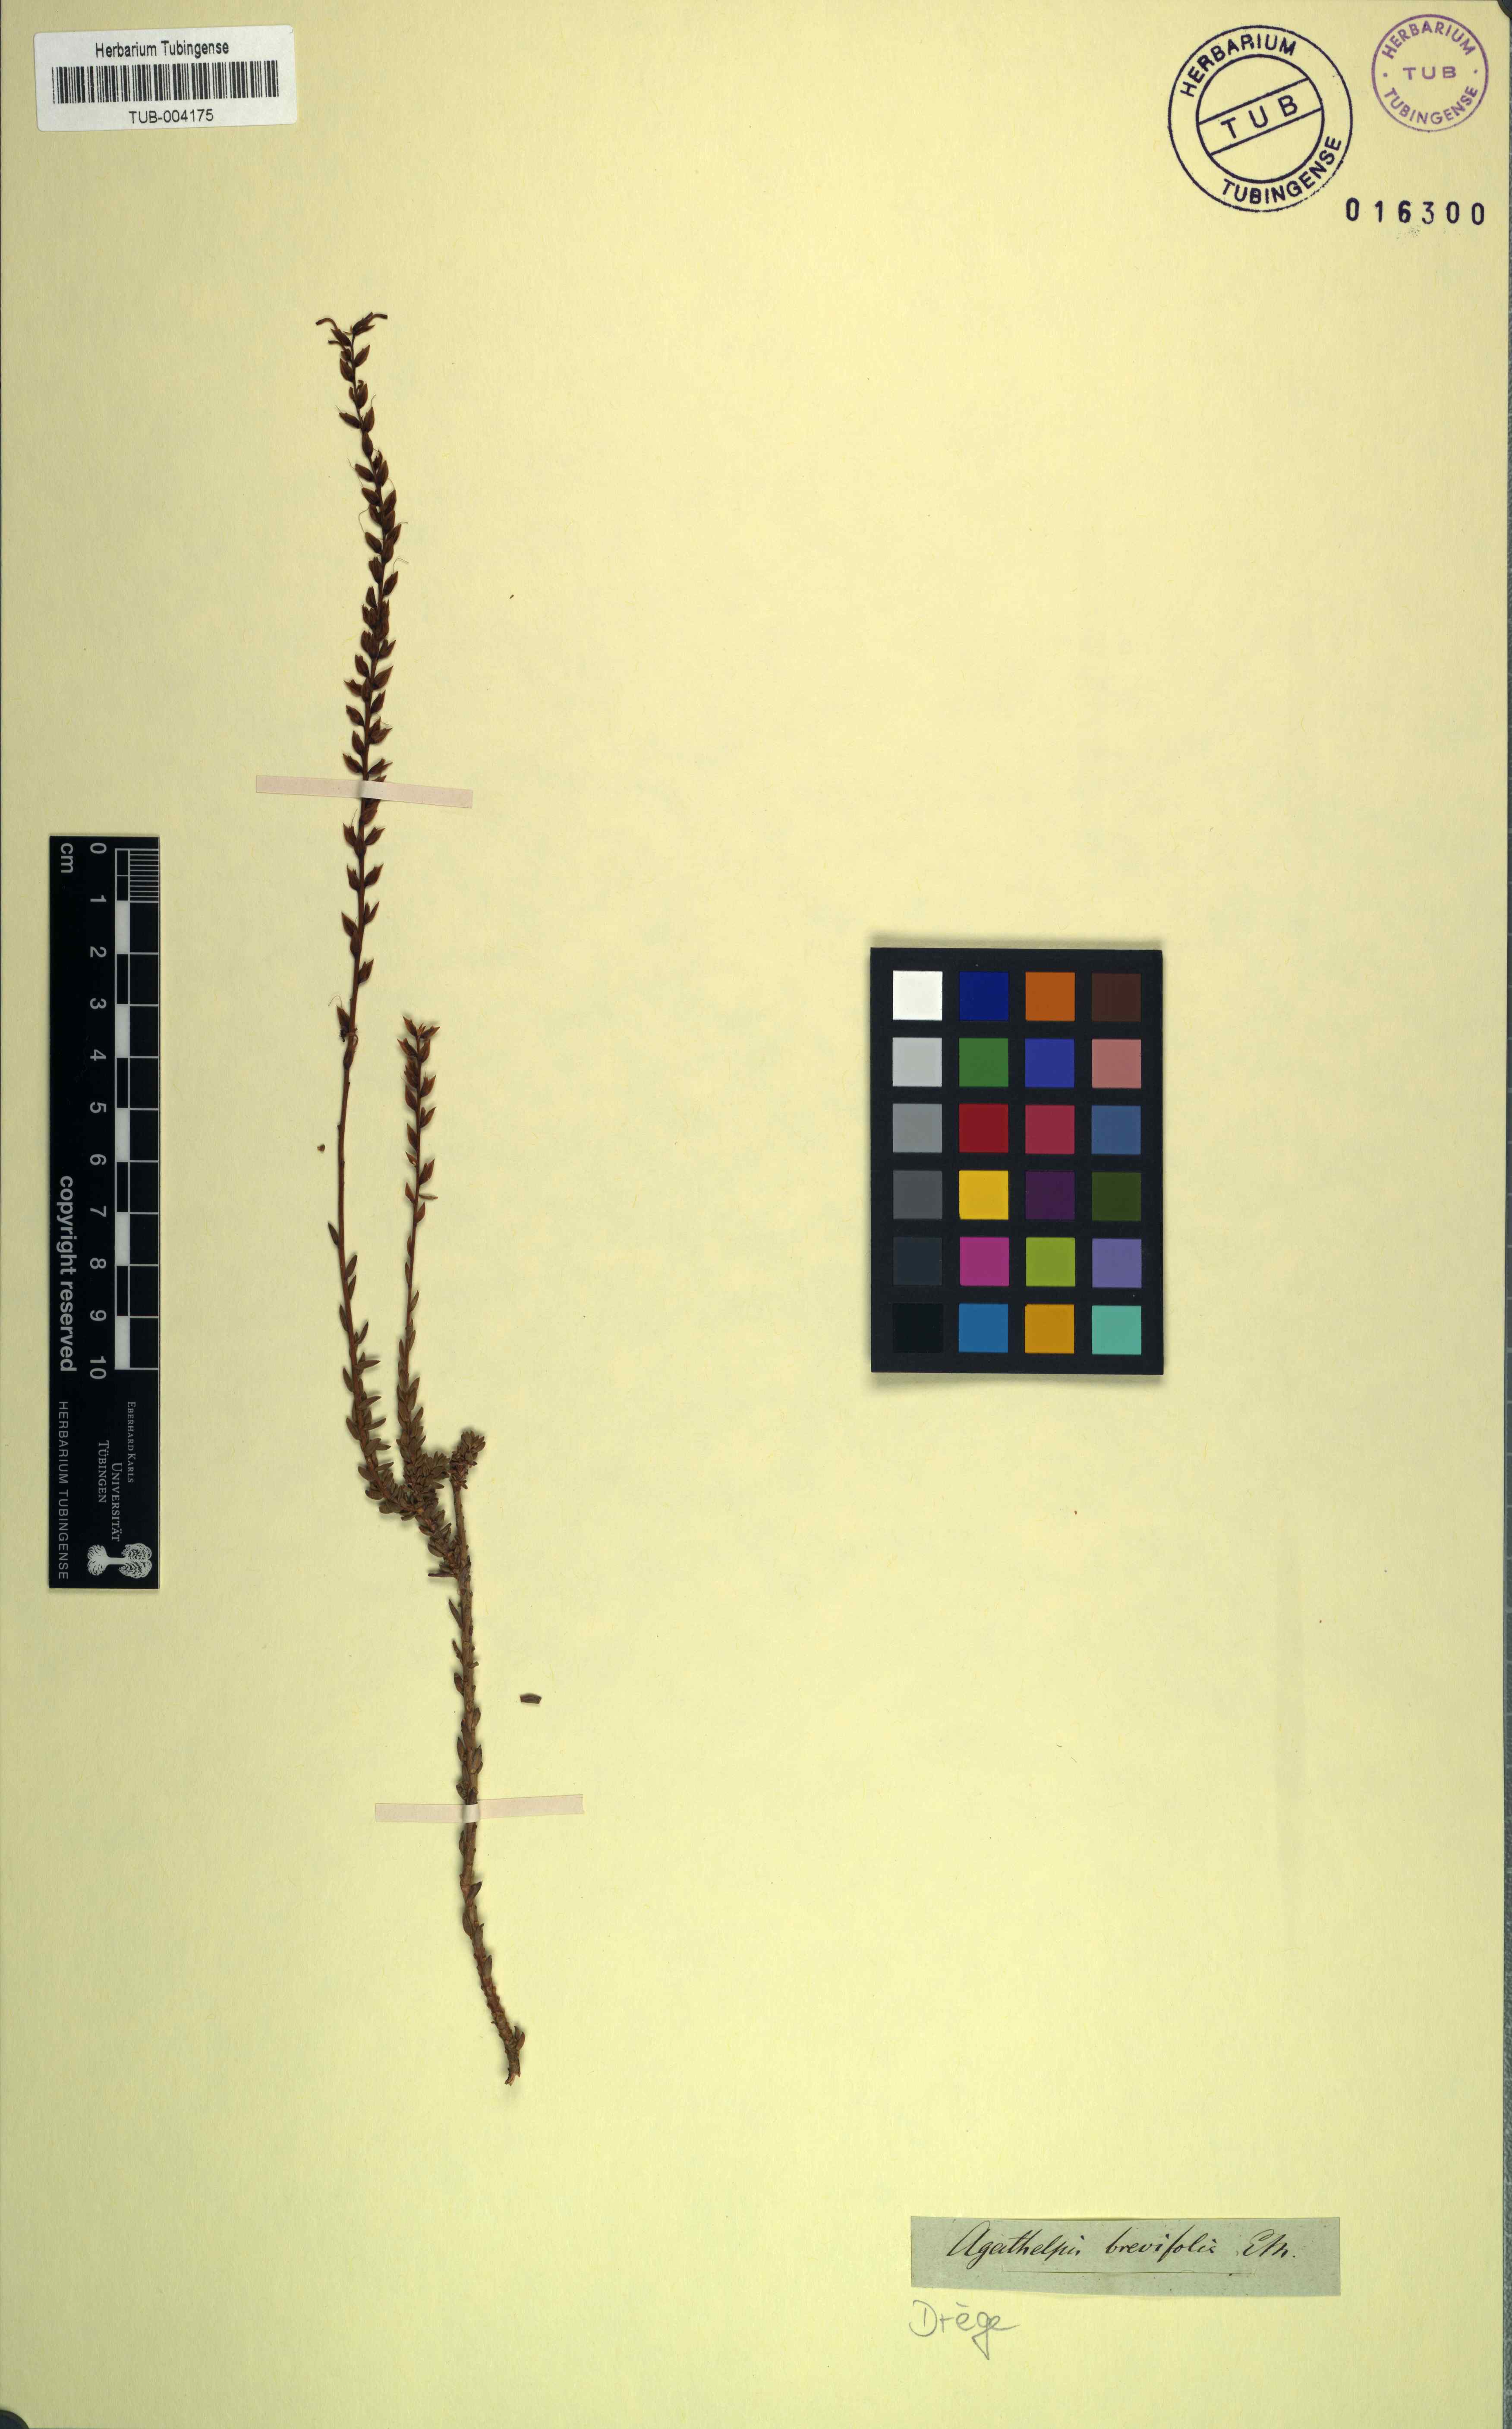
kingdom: Plantae
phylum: Tracheophyta
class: Magnoliopsida
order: Lamiales
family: Scrophulariaceae
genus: Microdon
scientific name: Microdon dubius
